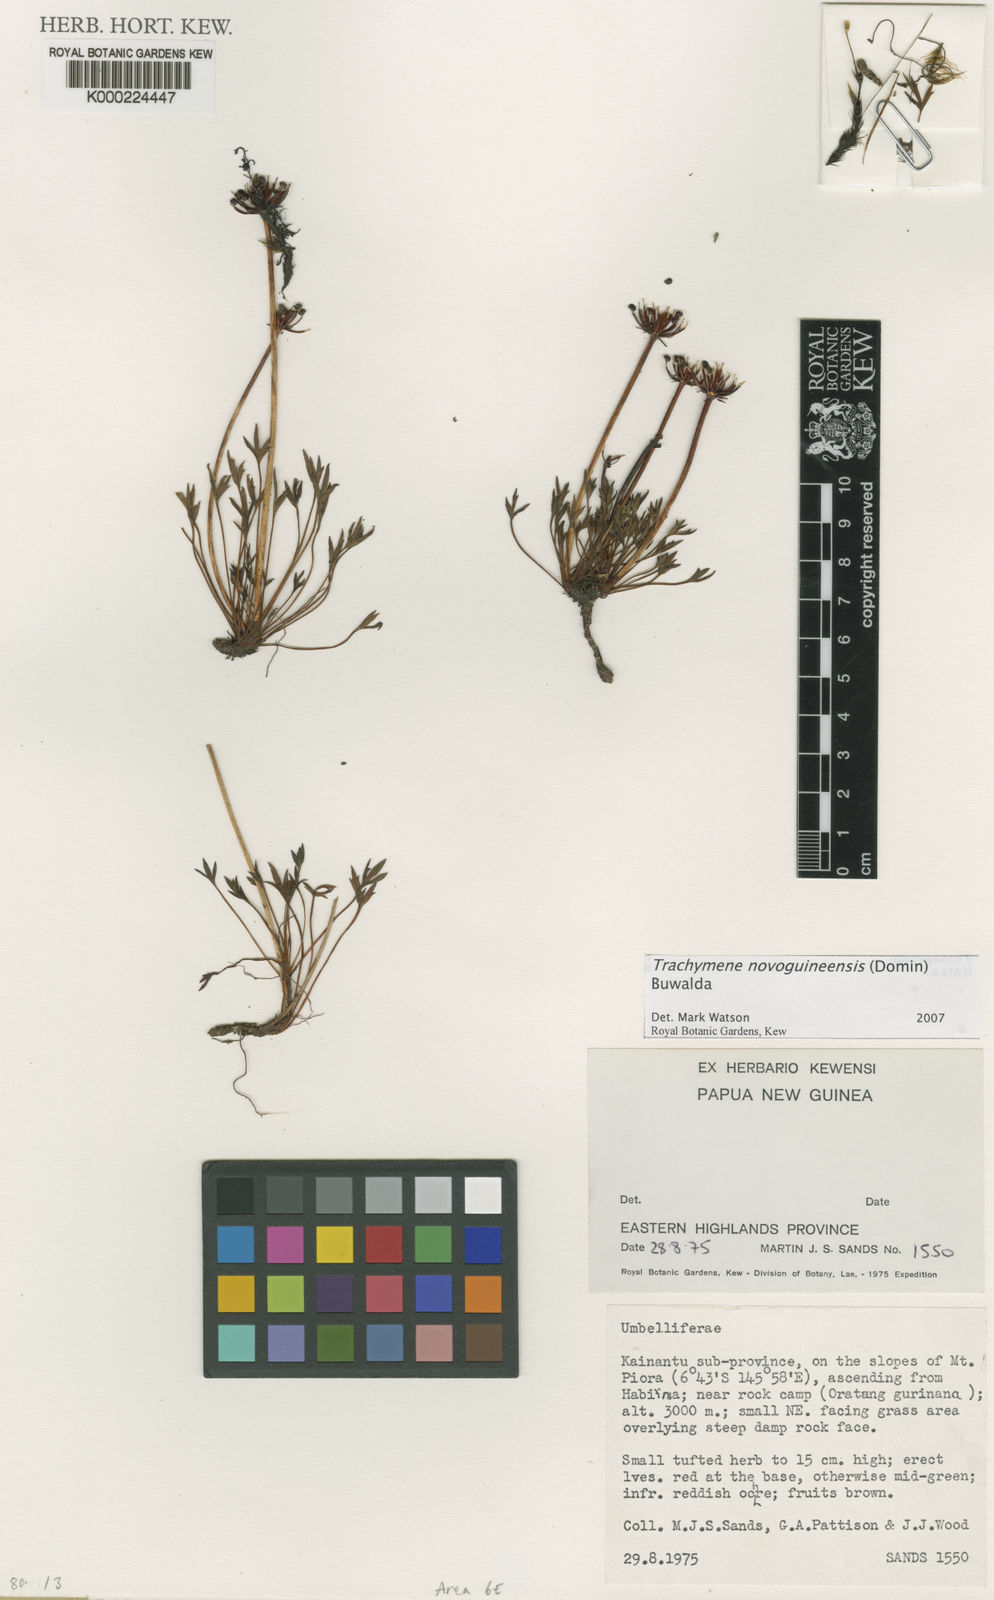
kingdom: Plantae
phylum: Tracheophyta
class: Magnoliopsida
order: Apiales
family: Araliaceae
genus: Trachymene
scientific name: Trachymene novoguineensis
